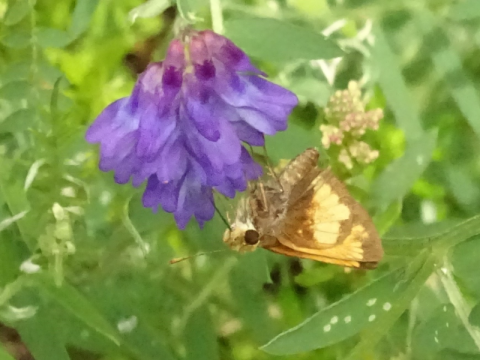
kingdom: Animalia
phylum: Arthropoda
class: Insecta
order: Lepidoptera
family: Hesperiidae
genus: Lon
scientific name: Lon hobomok
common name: Hobomok Skipper
